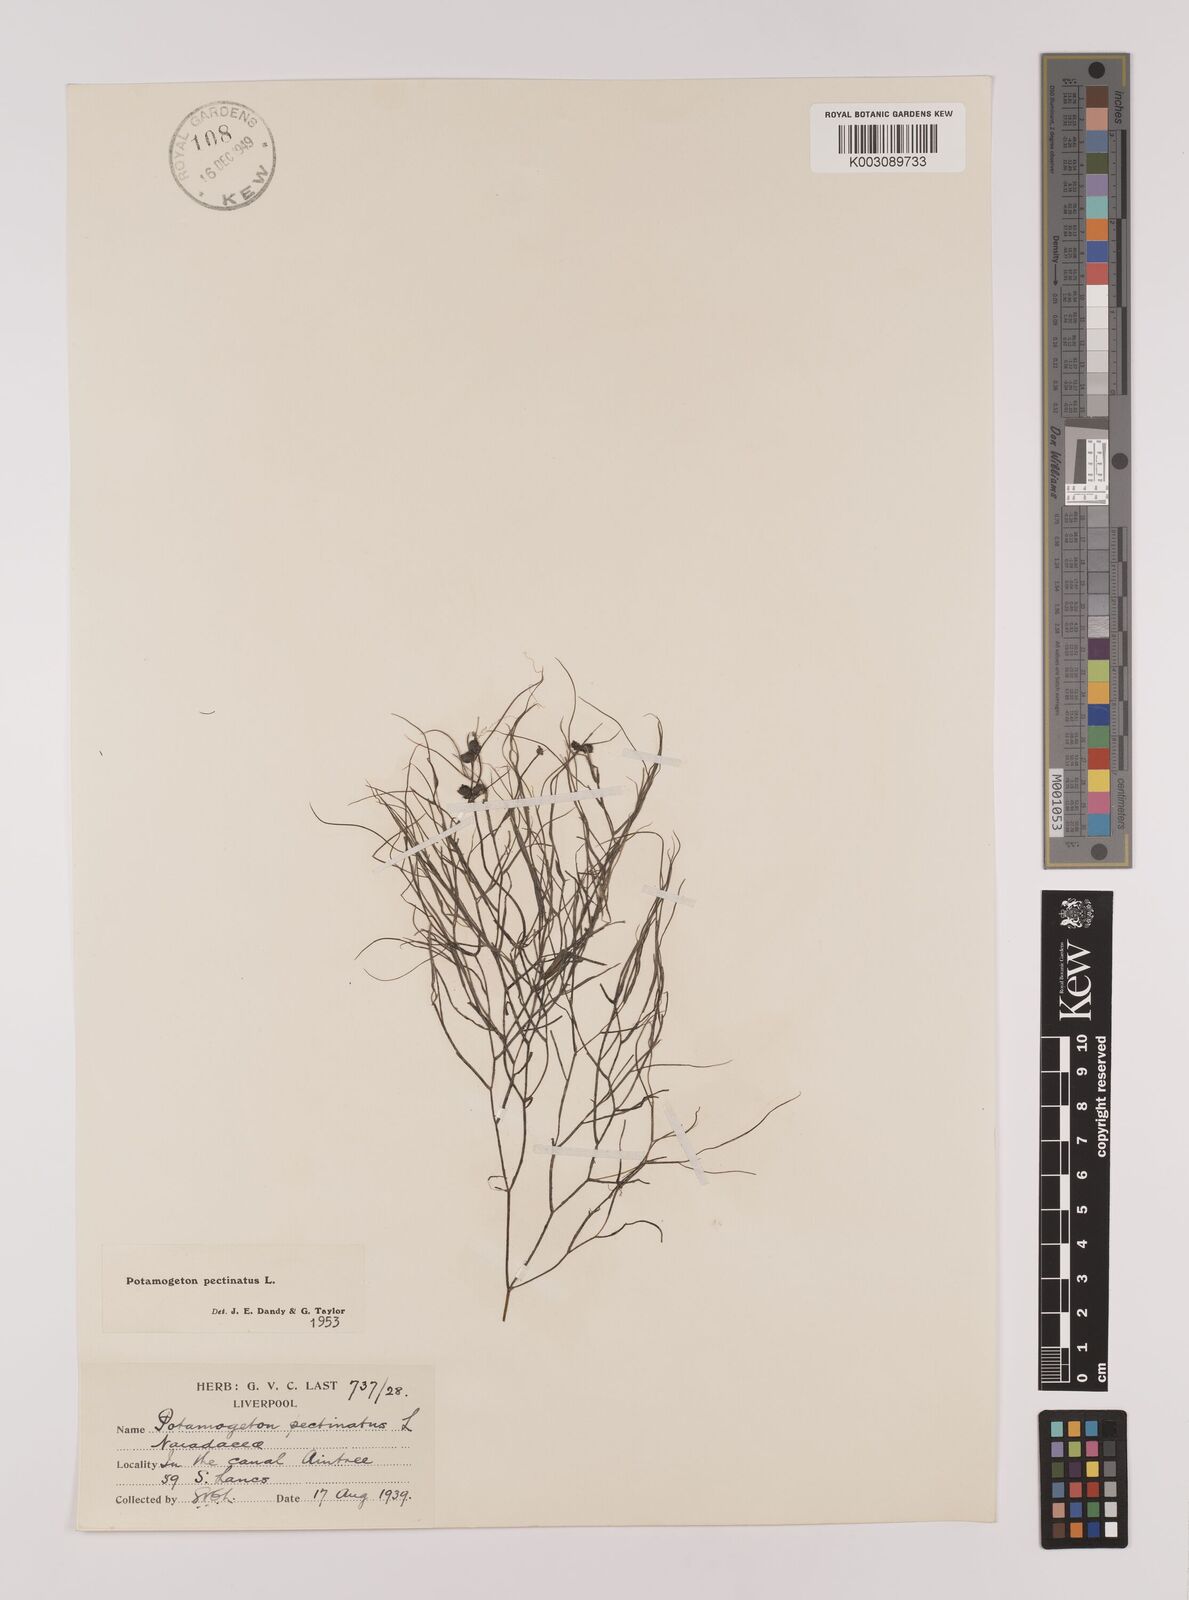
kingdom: Plantae
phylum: Tracheophyta
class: Liliopsida
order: Alismatales
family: Potamogetonaceae
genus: Stuckenia
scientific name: Stuckenia pectinata
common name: Sago pondweed
